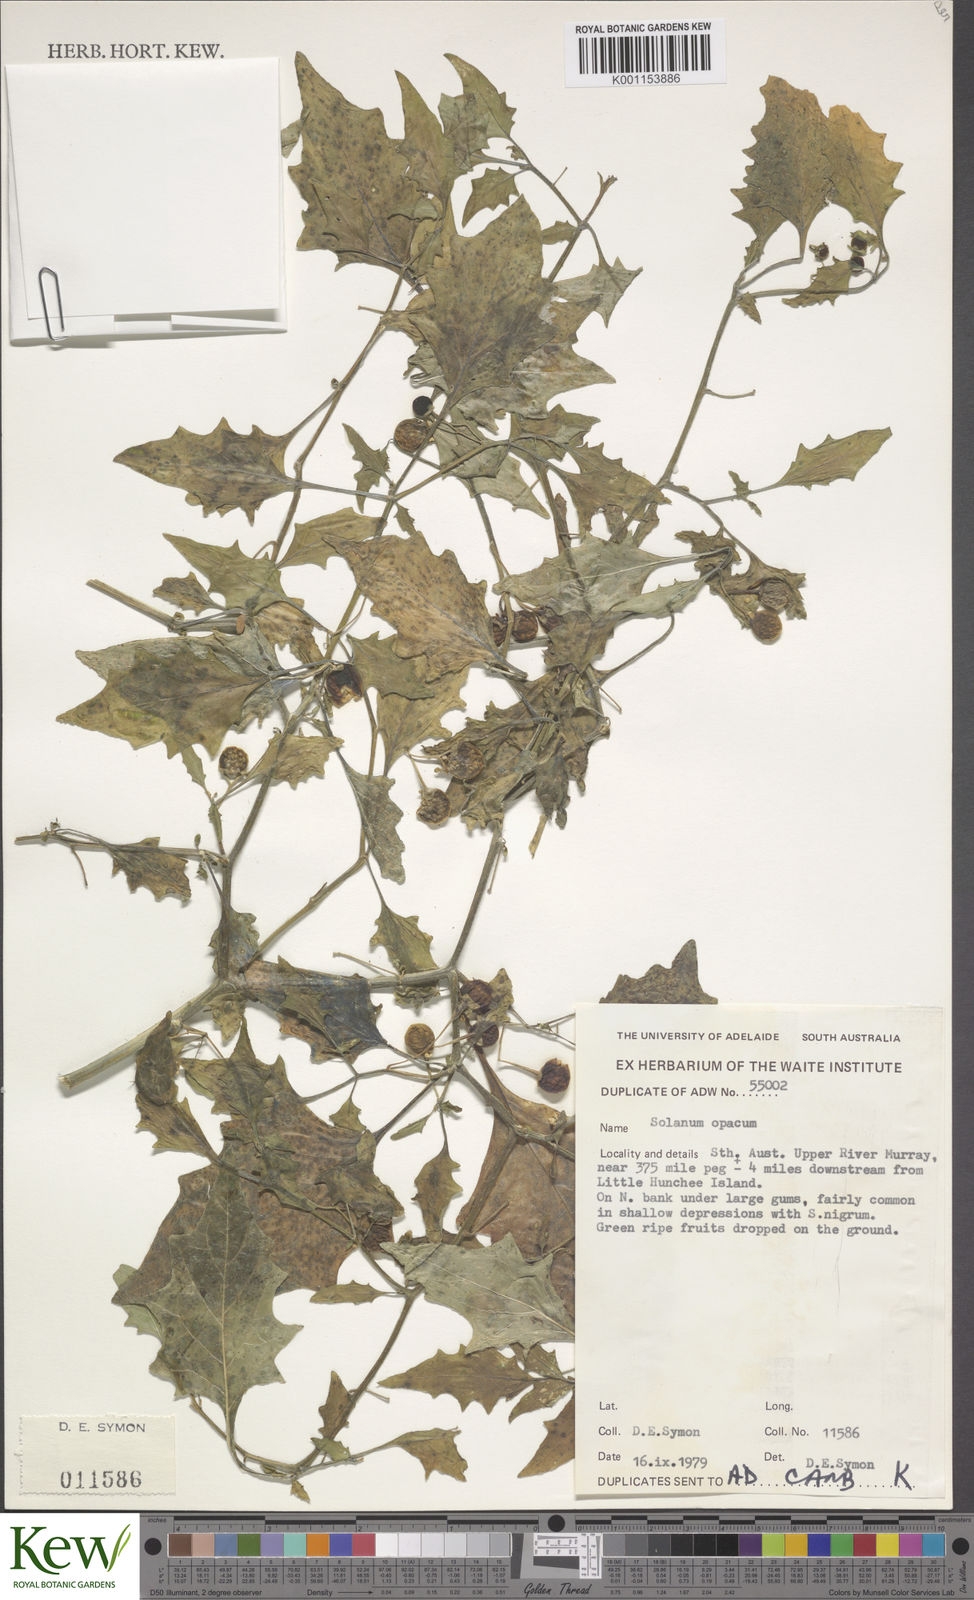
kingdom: Plantae
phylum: Tracheophyta
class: Magnoliopsida
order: Solanales
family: Solanaceae
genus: Solanum
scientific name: Solanum
